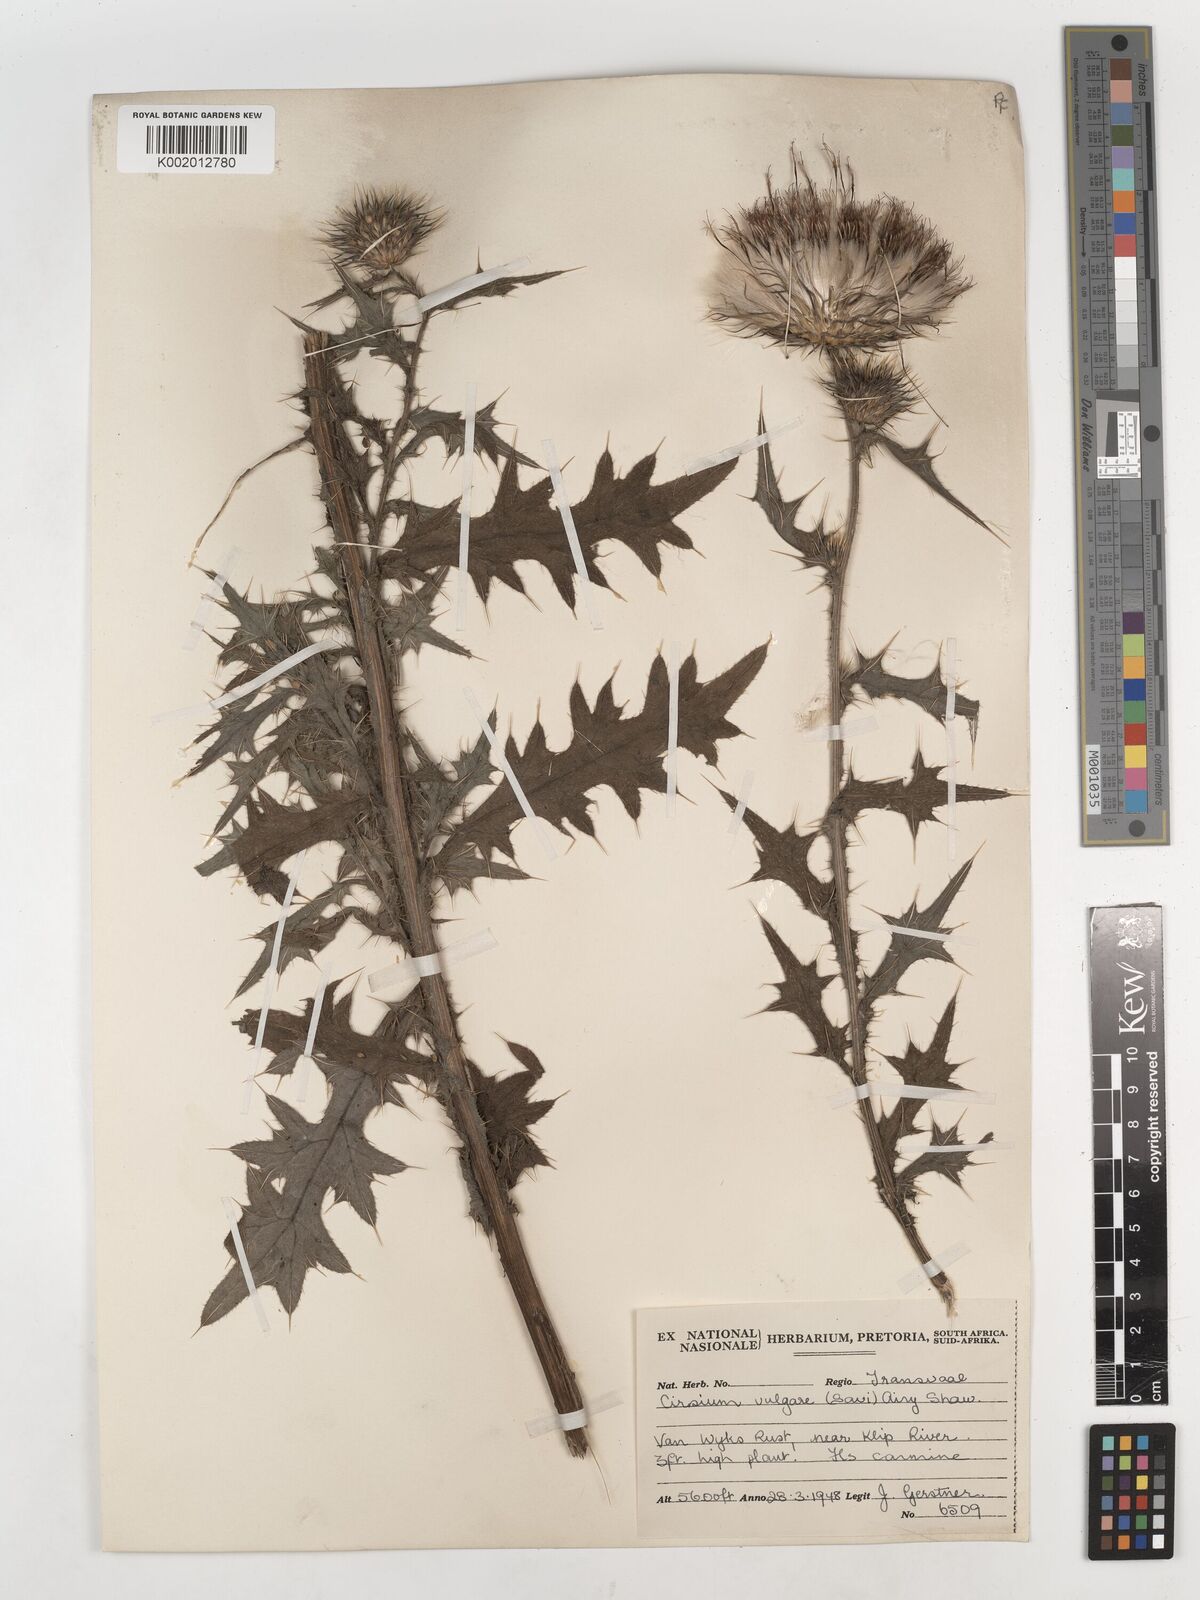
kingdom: Plantae
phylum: Tracheophyta
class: Magnoliopsida
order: Asterales
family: Asteraceae
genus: Cirsium
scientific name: Cirsium vulgare
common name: Bull thistle
